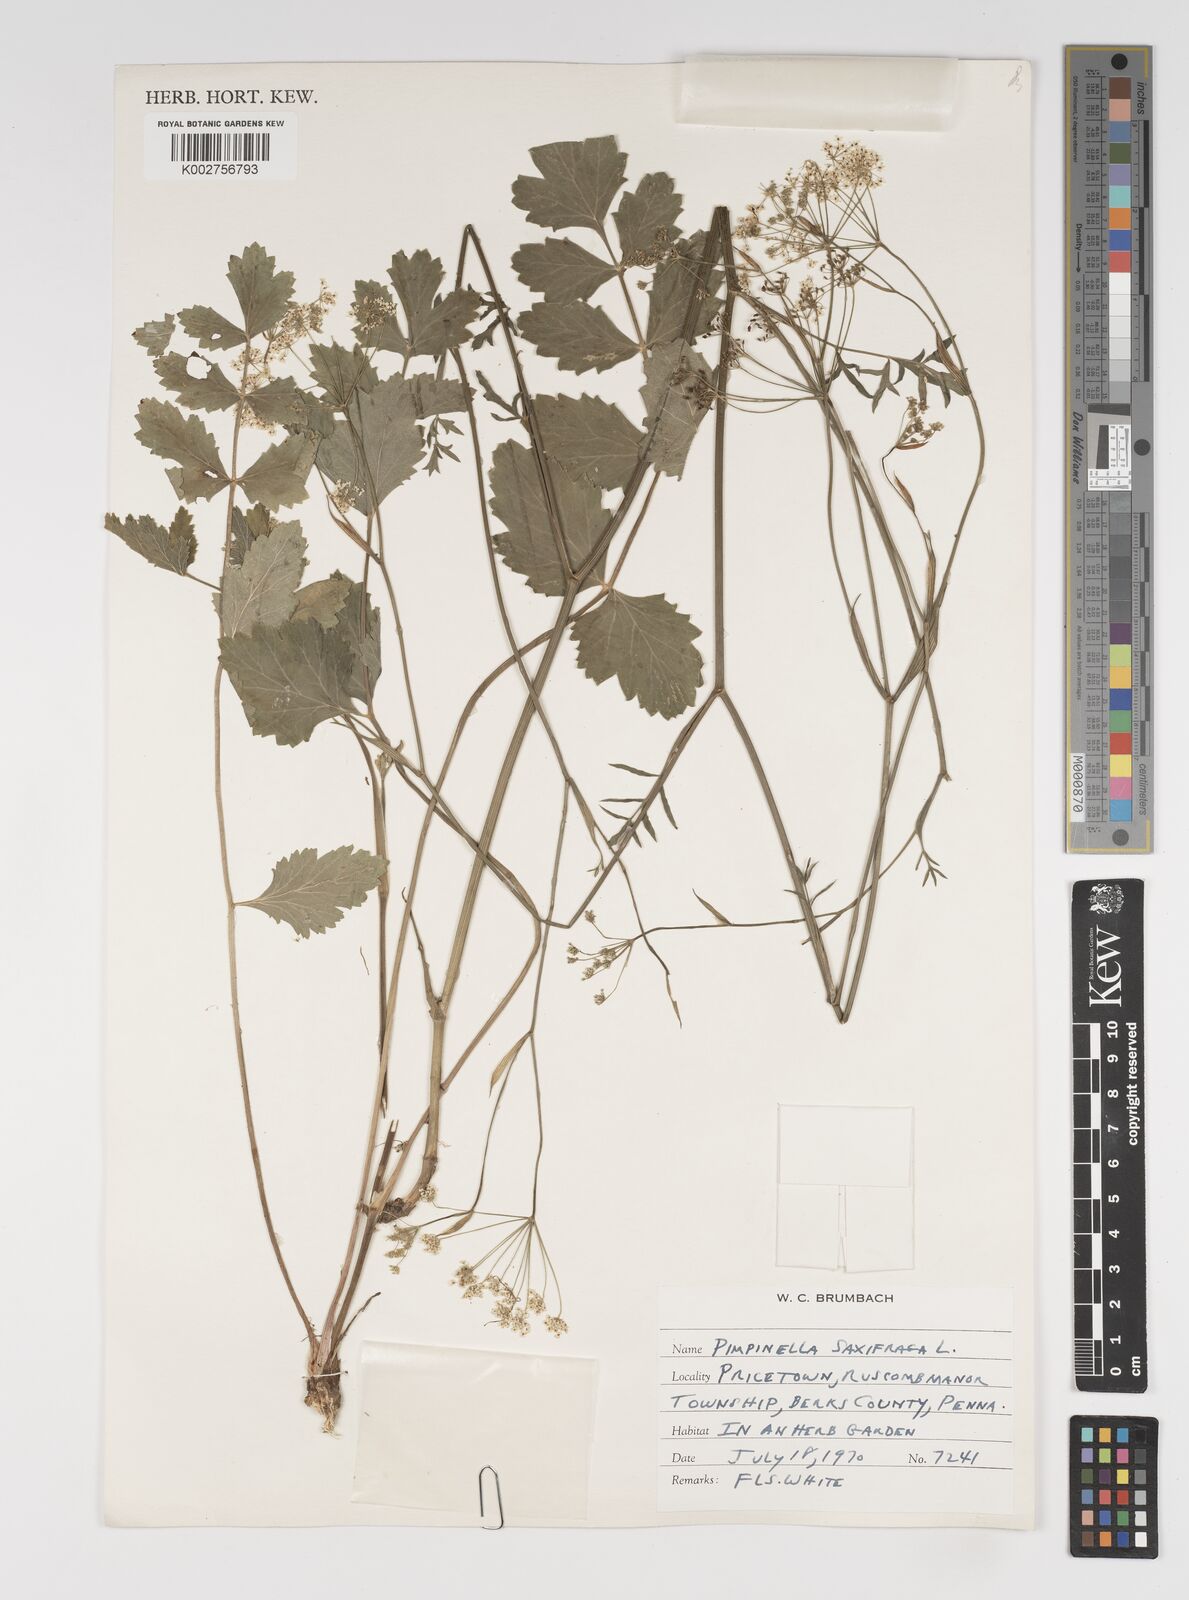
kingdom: Plantae
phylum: Tracheophyta
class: Magnoliopsida
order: Apiales
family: Apiaceae
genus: Pimpinella
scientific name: Pimpinella saxifraga
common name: Burnet-saxifrage
